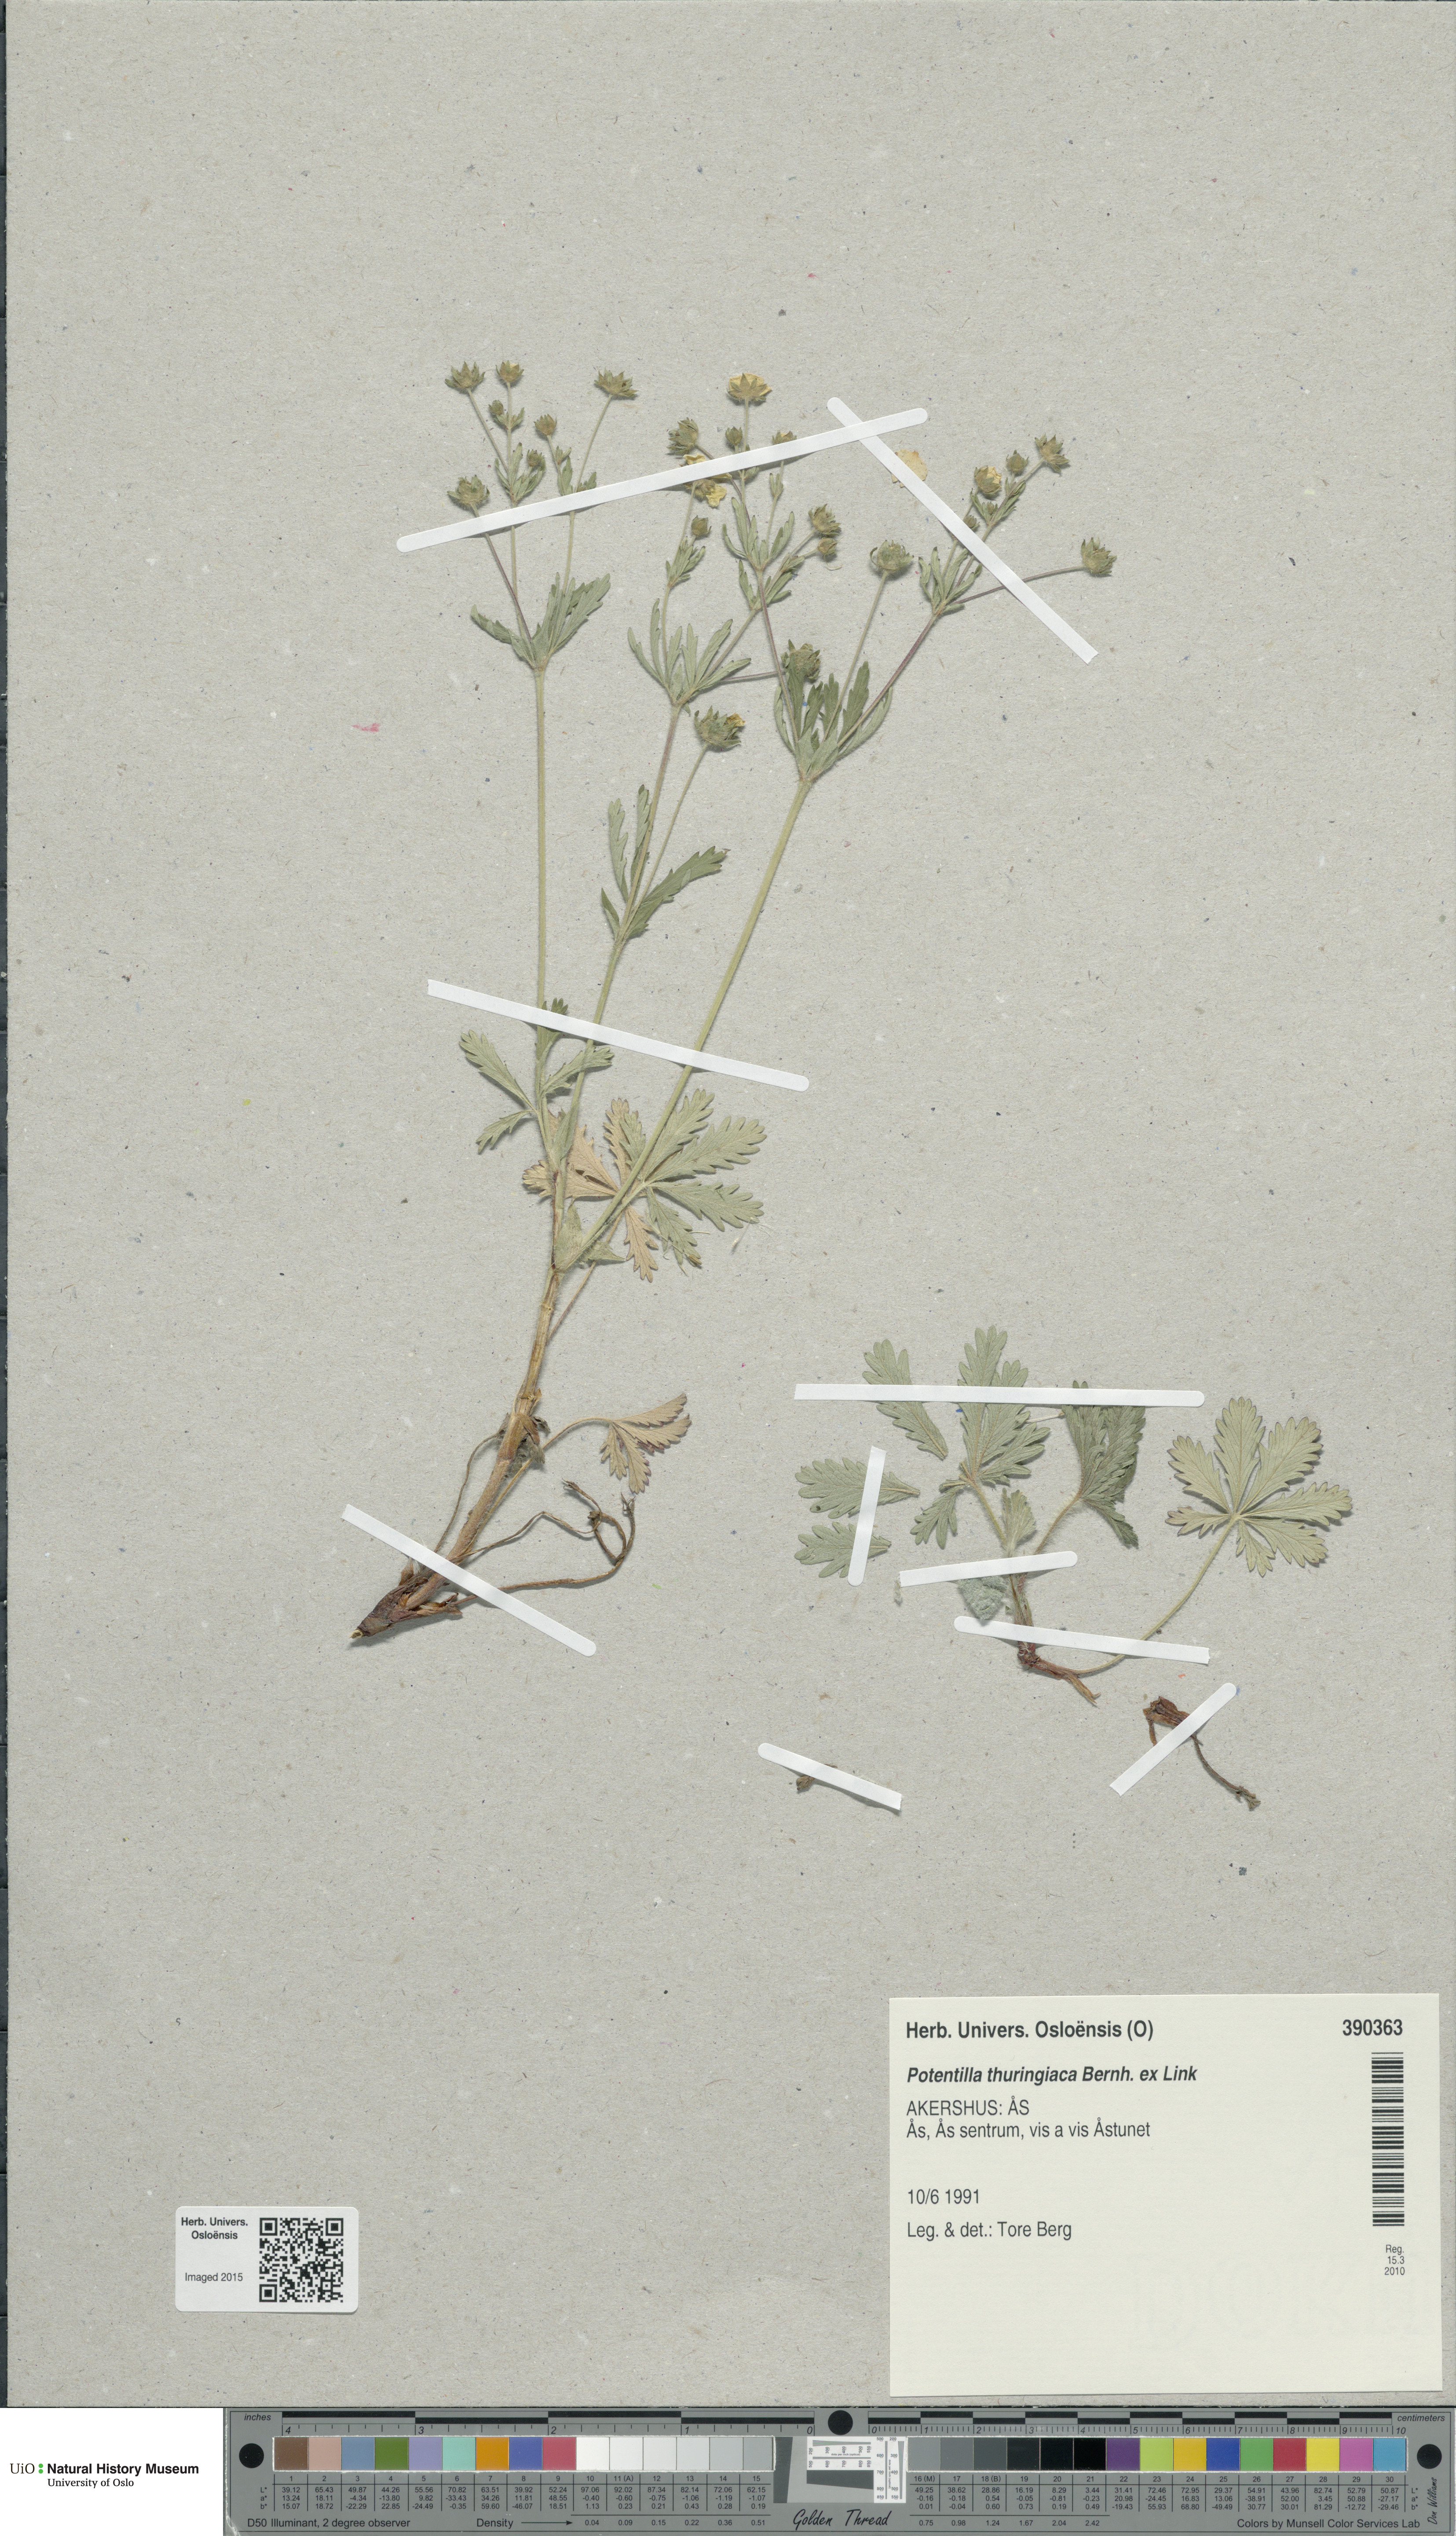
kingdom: Plantae
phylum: Tracheophyta
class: Magnoliopsida
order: Rosales
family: Rosaceae
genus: Potentilla
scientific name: Potentilla thuringiaca
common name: European cinquefoil
